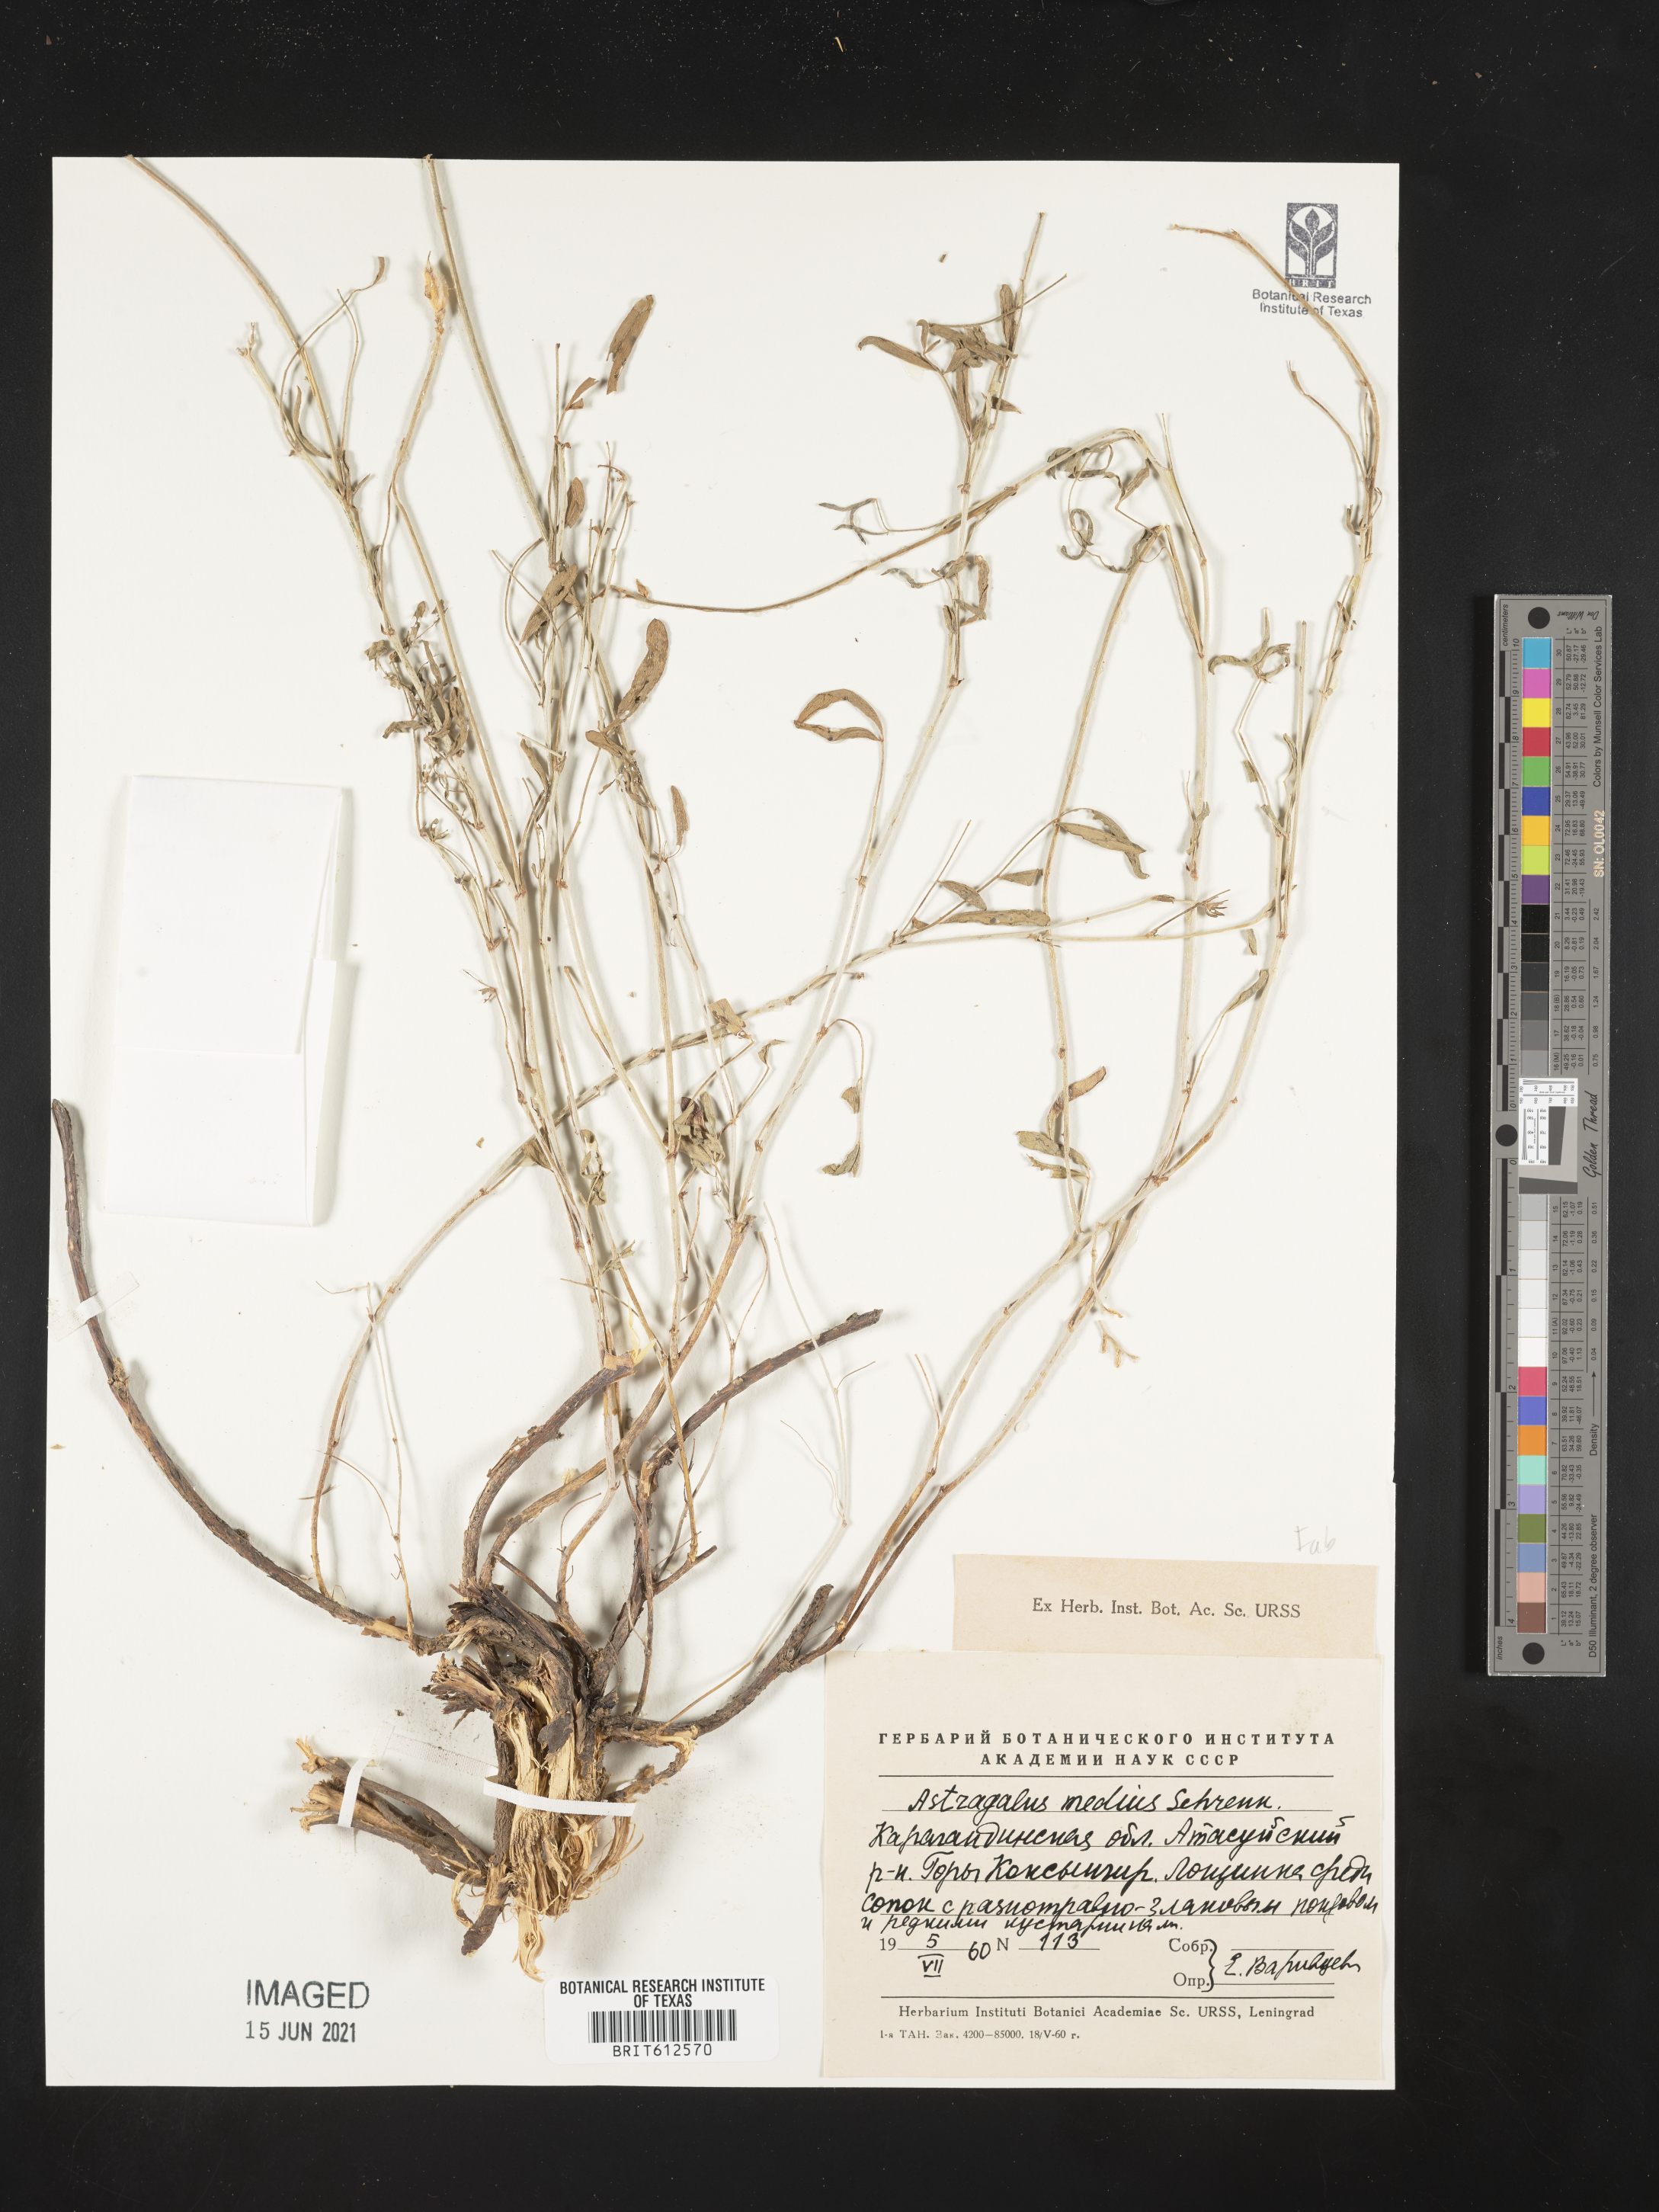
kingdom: Plantae
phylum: Tracheophyta
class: Magnoliopsida
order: Fabales
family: Fabaceae
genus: Astragalus
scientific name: Astragalus medius
